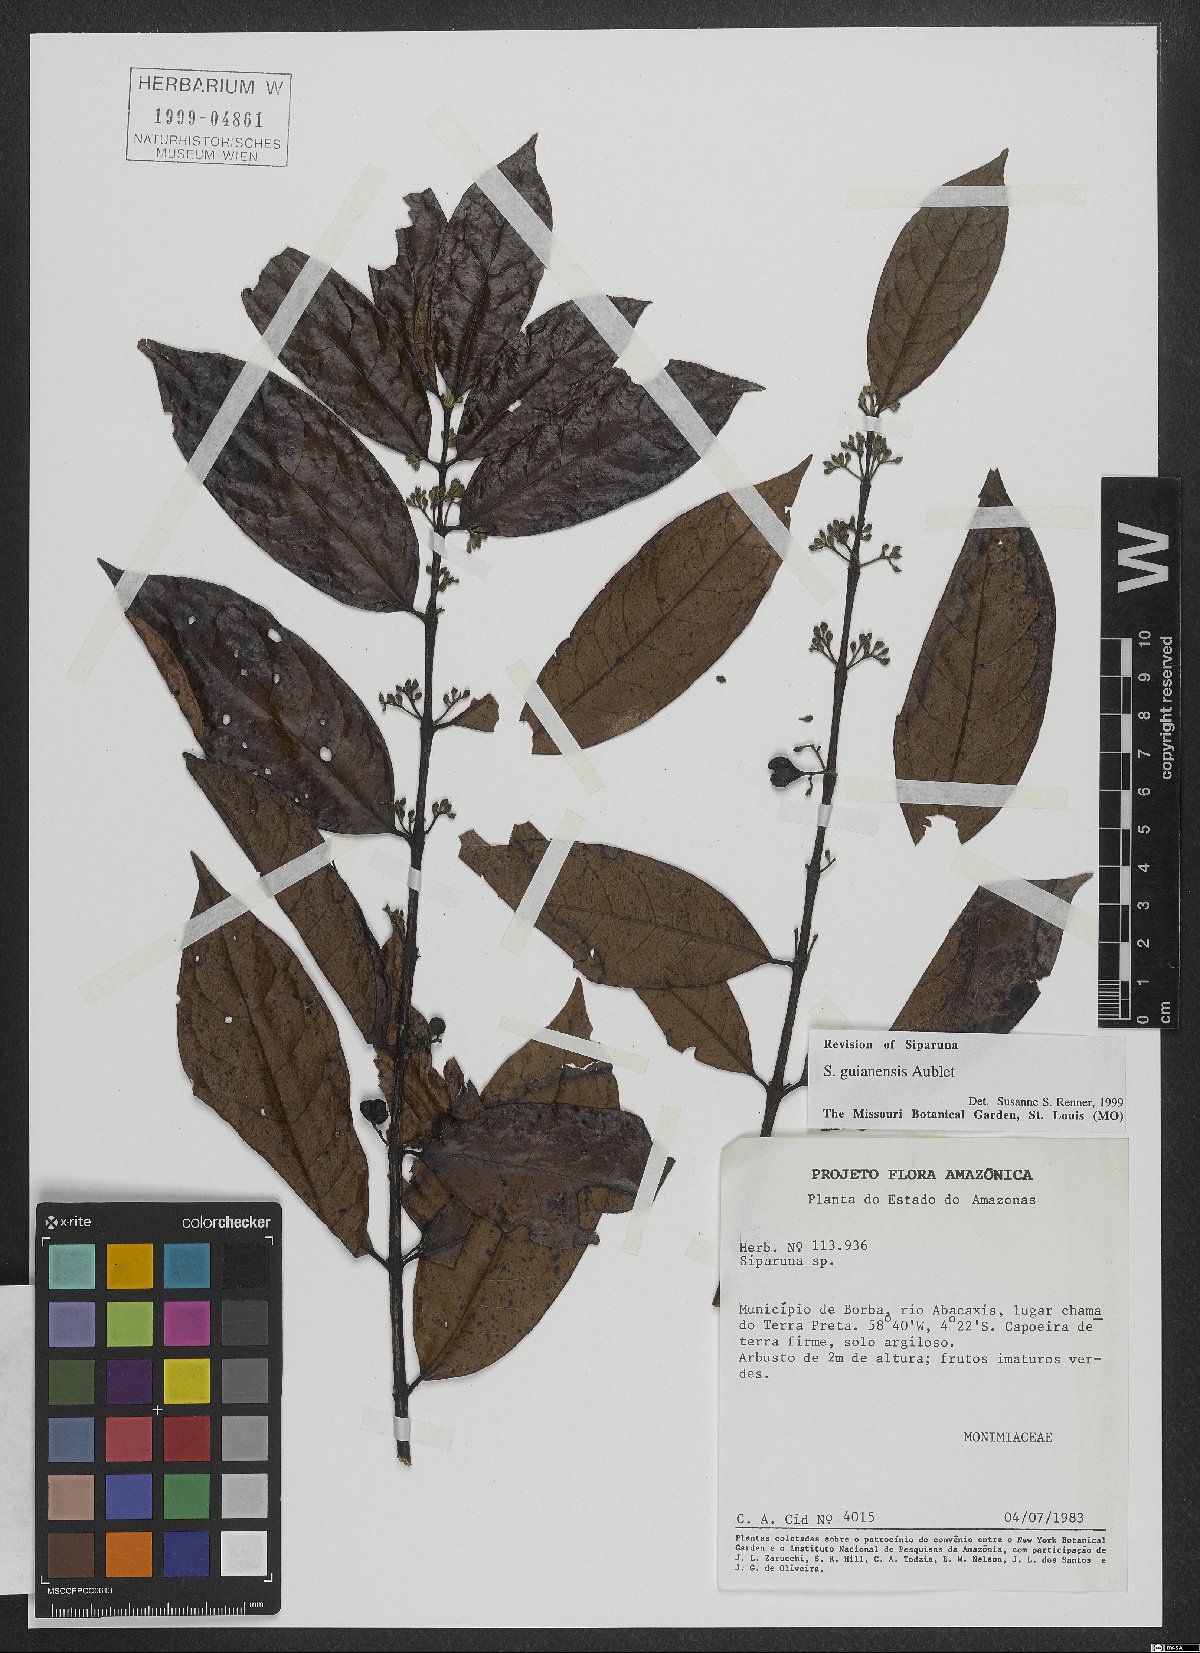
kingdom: Plantae
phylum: Tracheophyta
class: Magnoliopsida
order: Laurales
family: Siparunaceae
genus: Siparuna
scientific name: Siparuna guianensis
